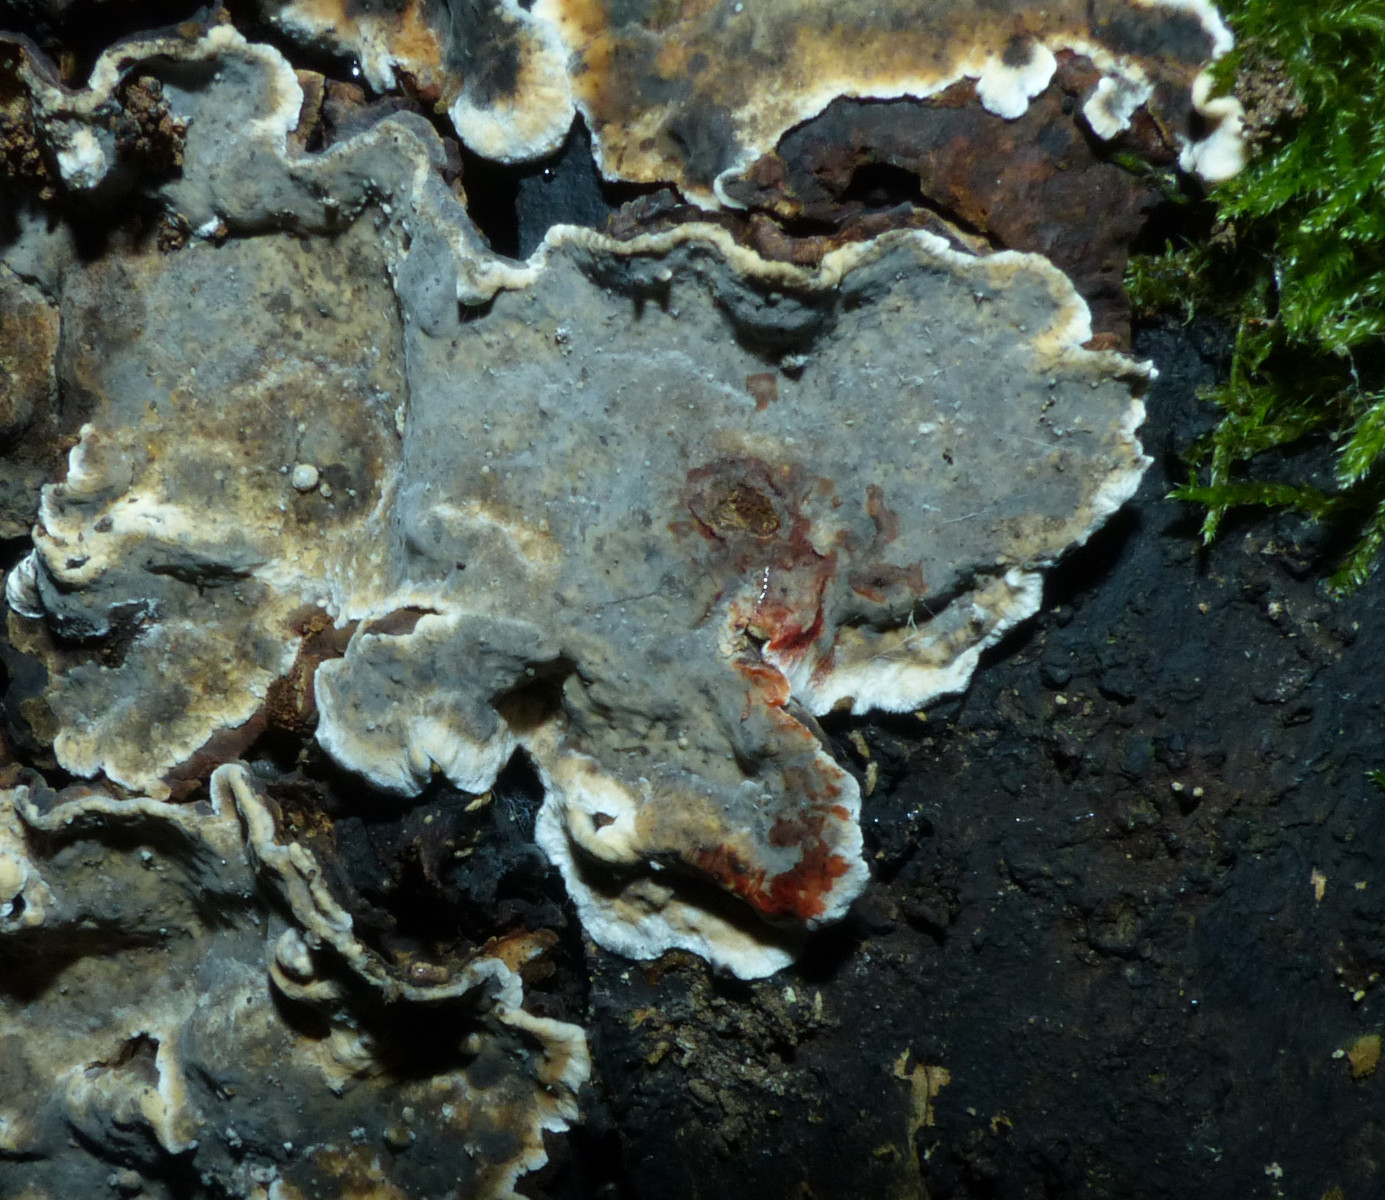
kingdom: Fungi
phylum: Basidiomycota
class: Agaricomycetes
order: Russulales
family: Stereaceae
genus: Stereum
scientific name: Stereum rugosum
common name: rynket lædersvamp
